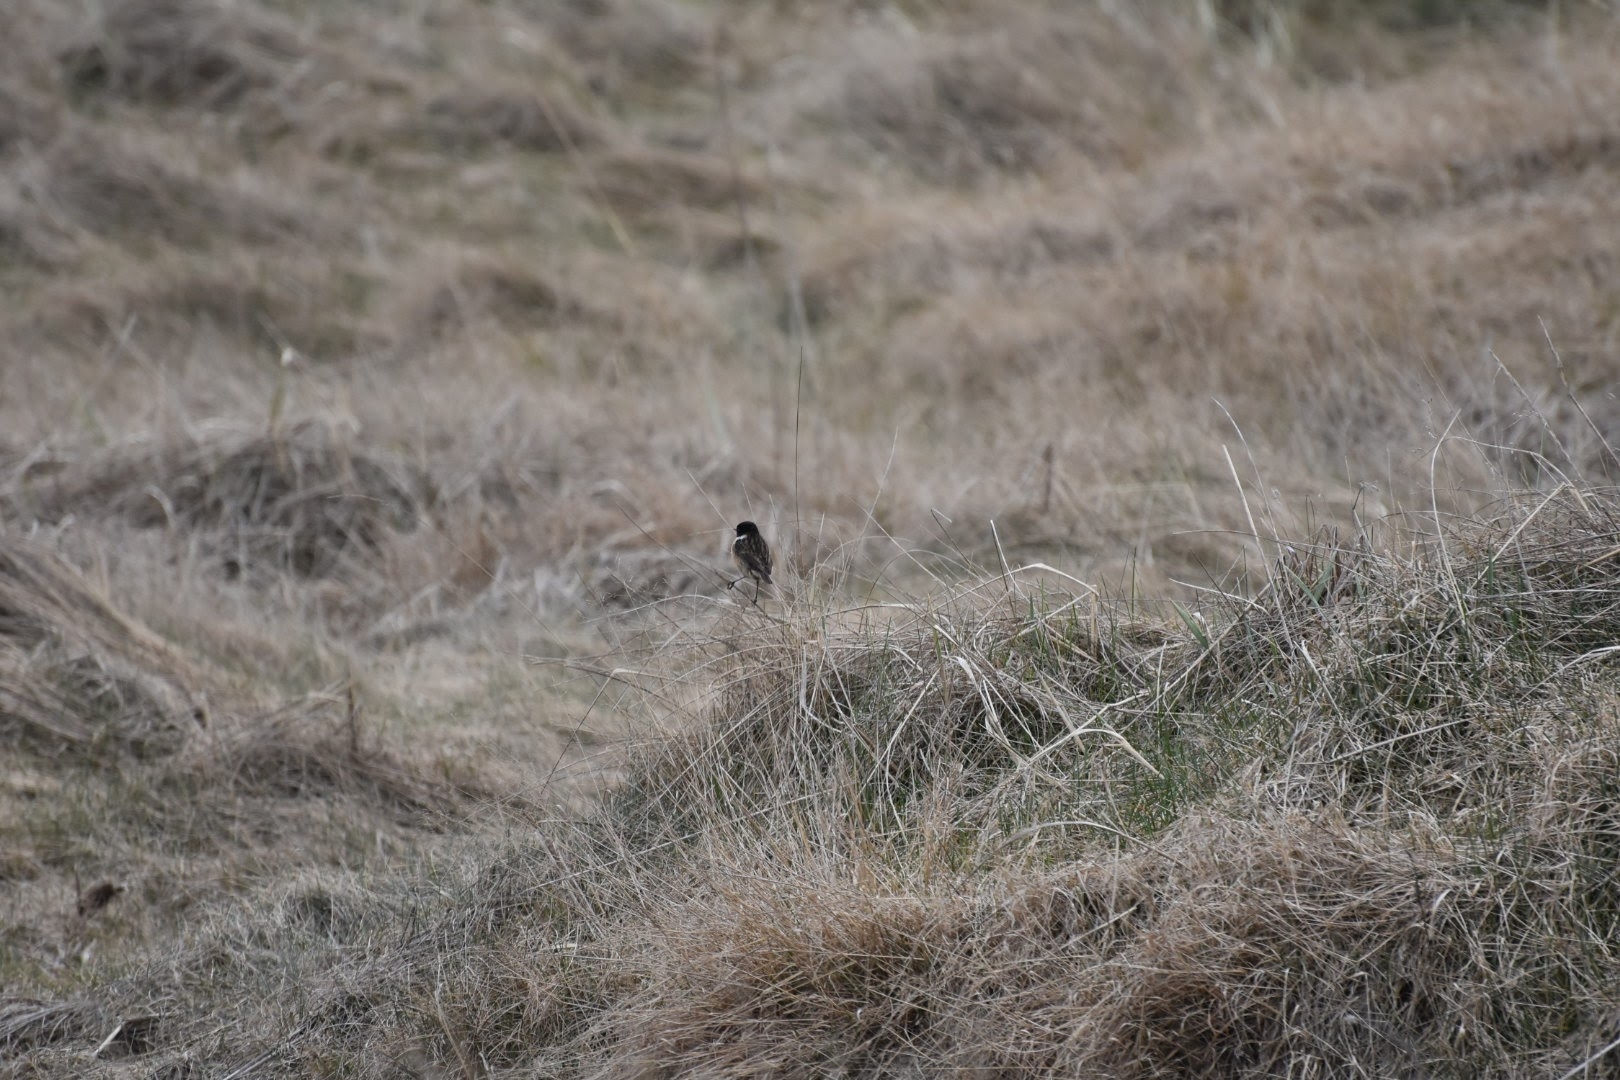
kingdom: Animalia
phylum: Chordata
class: Aves
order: Passeriformes
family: Muscicapidae
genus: Saxicola
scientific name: Saxicola rubicola
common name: Sortstrubet bynkefugl
